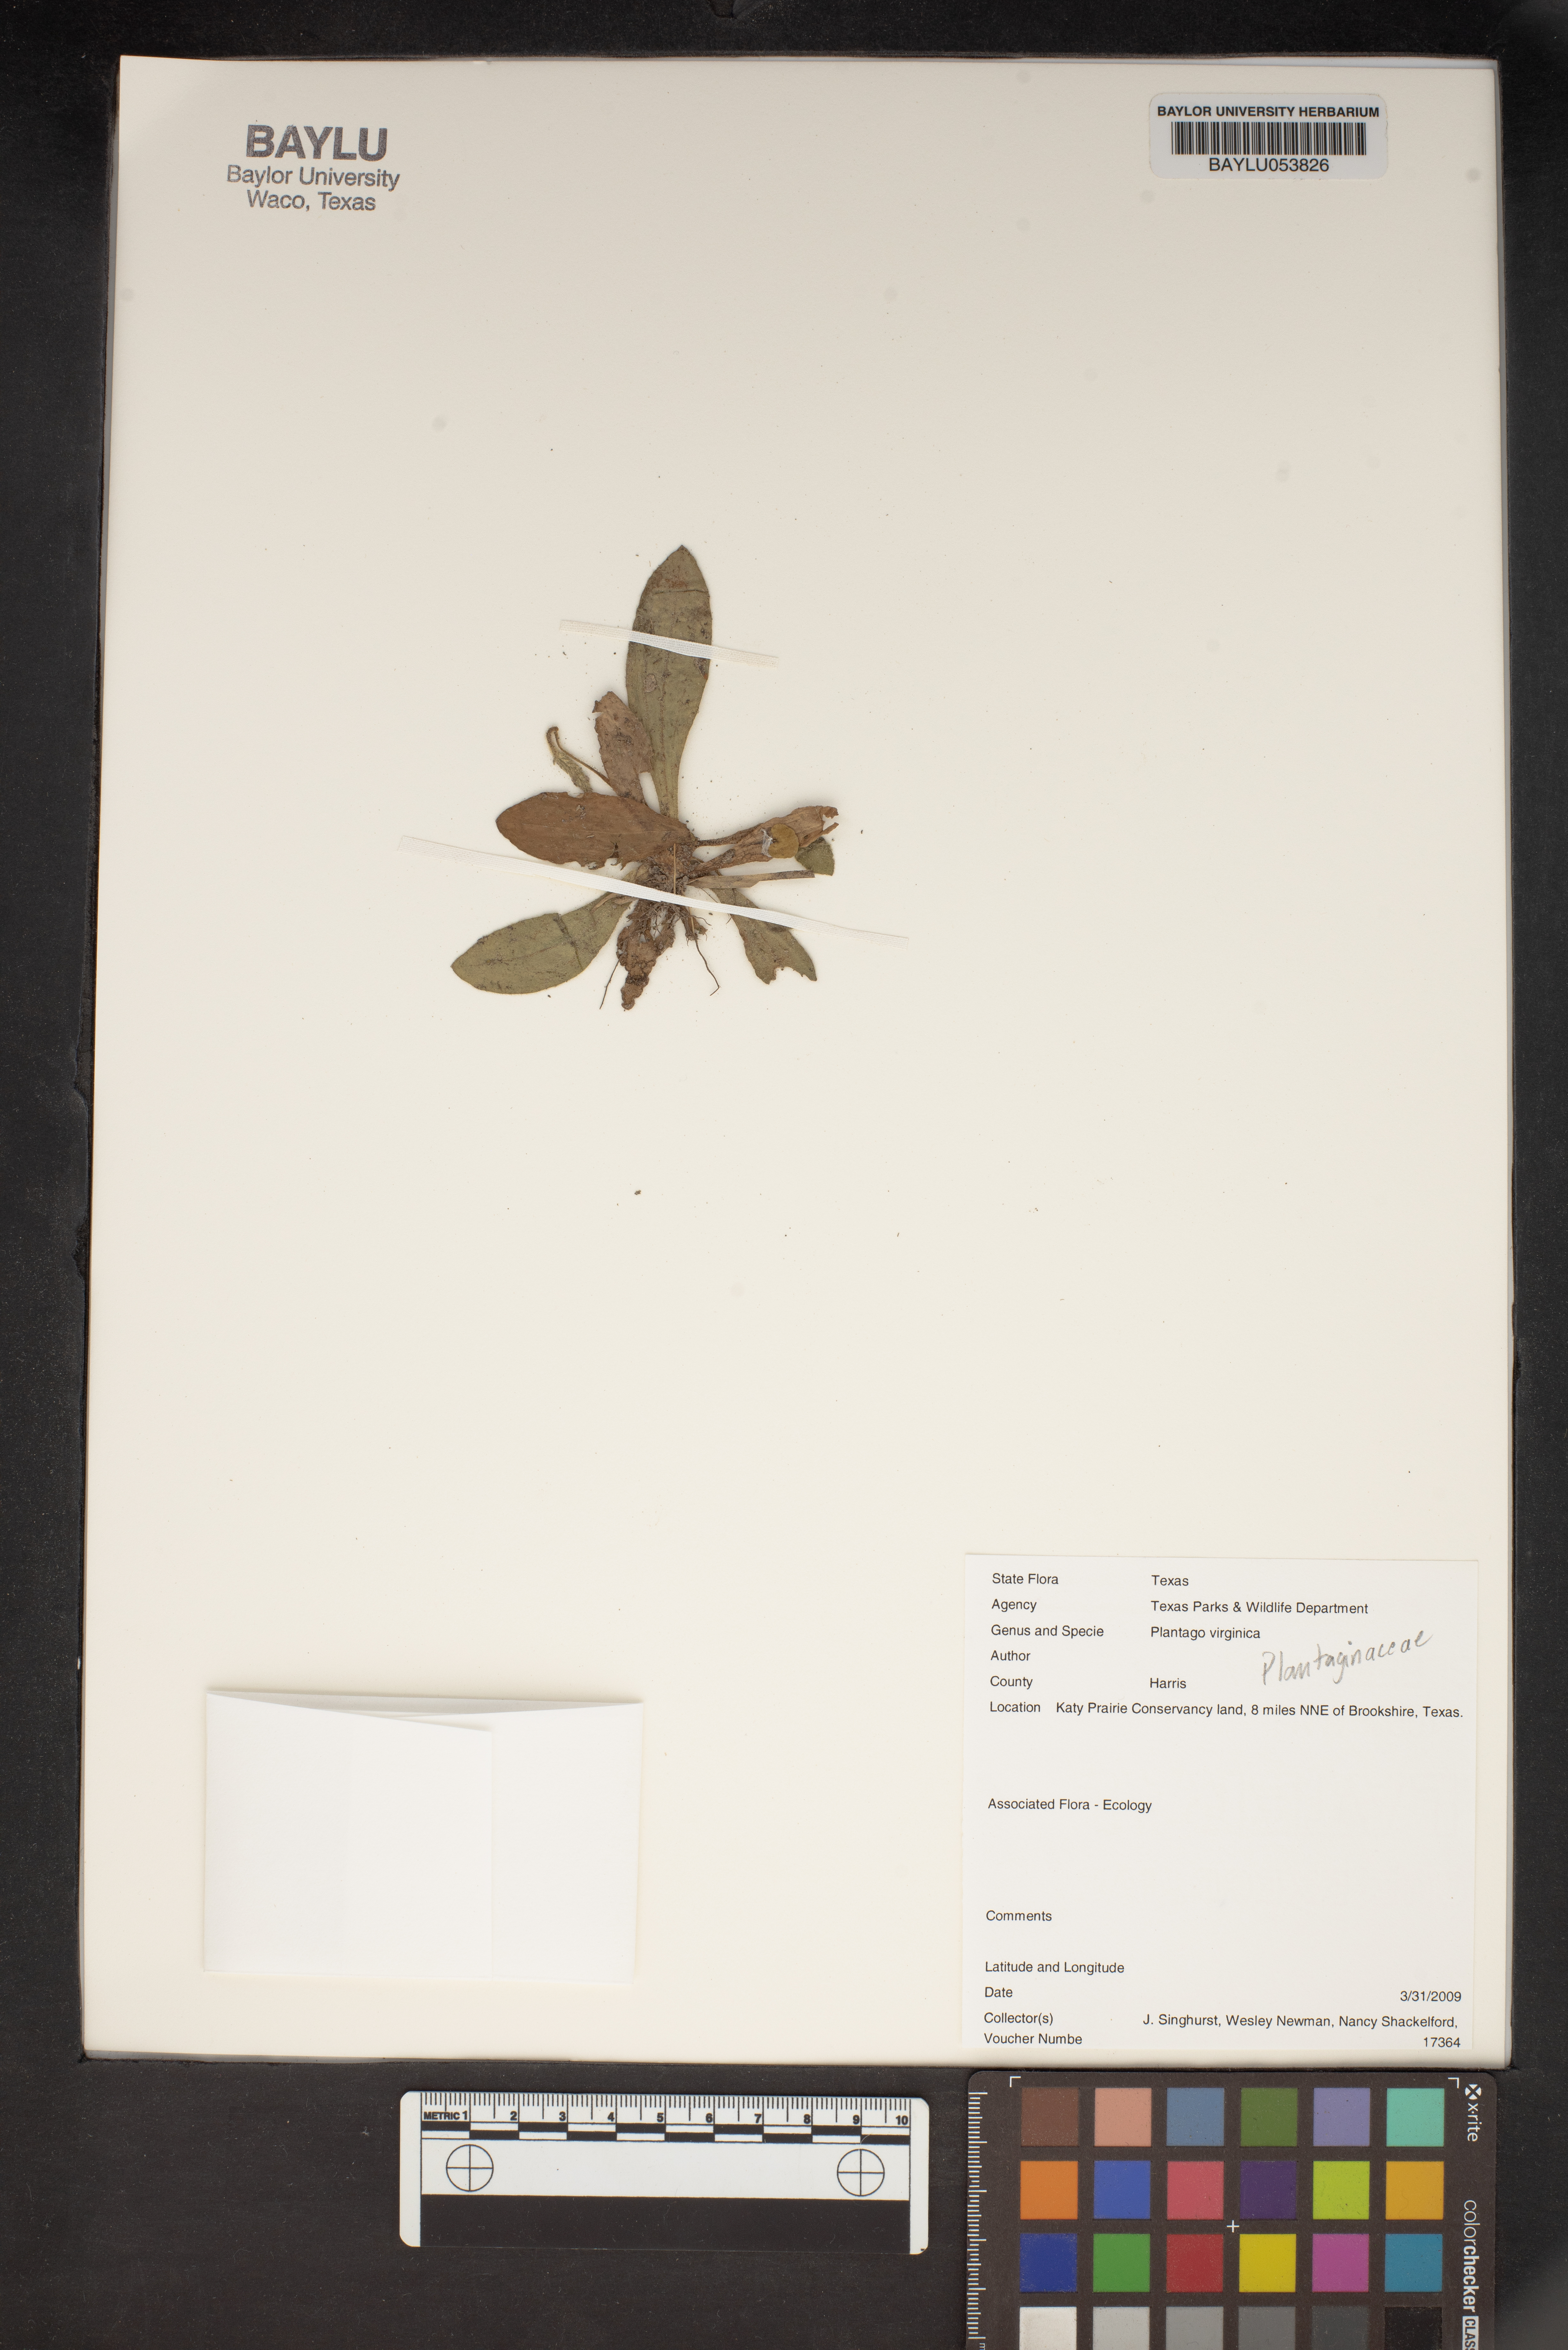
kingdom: Plantae
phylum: Tracheophyta
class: Magnoliopsida
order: Lamiales
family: Plantaginaceae
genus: Plantago
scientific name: Plantago virginica
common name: Hoary plantain
